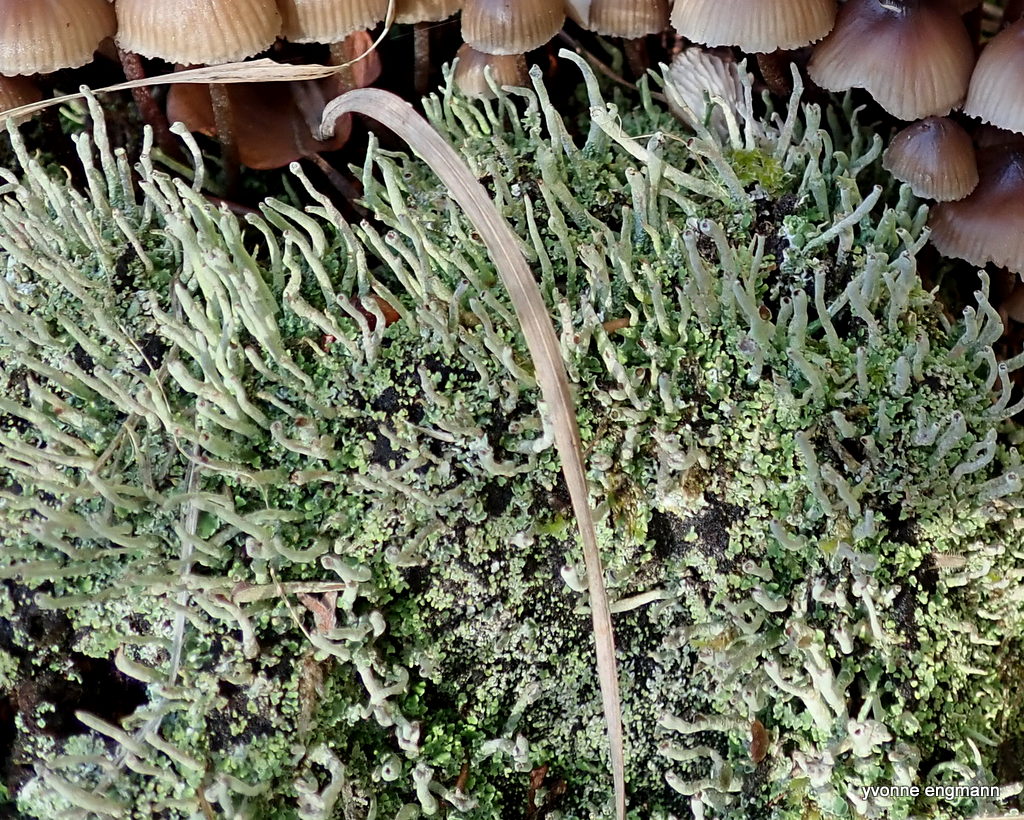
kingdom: Fungi
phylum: Ascomycota
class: Lecanoromycetes
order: Lecanorales
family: Cladoniaceae
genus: Cladonia
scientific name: Cladonia ochrochlora
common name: stød-bægerlav
